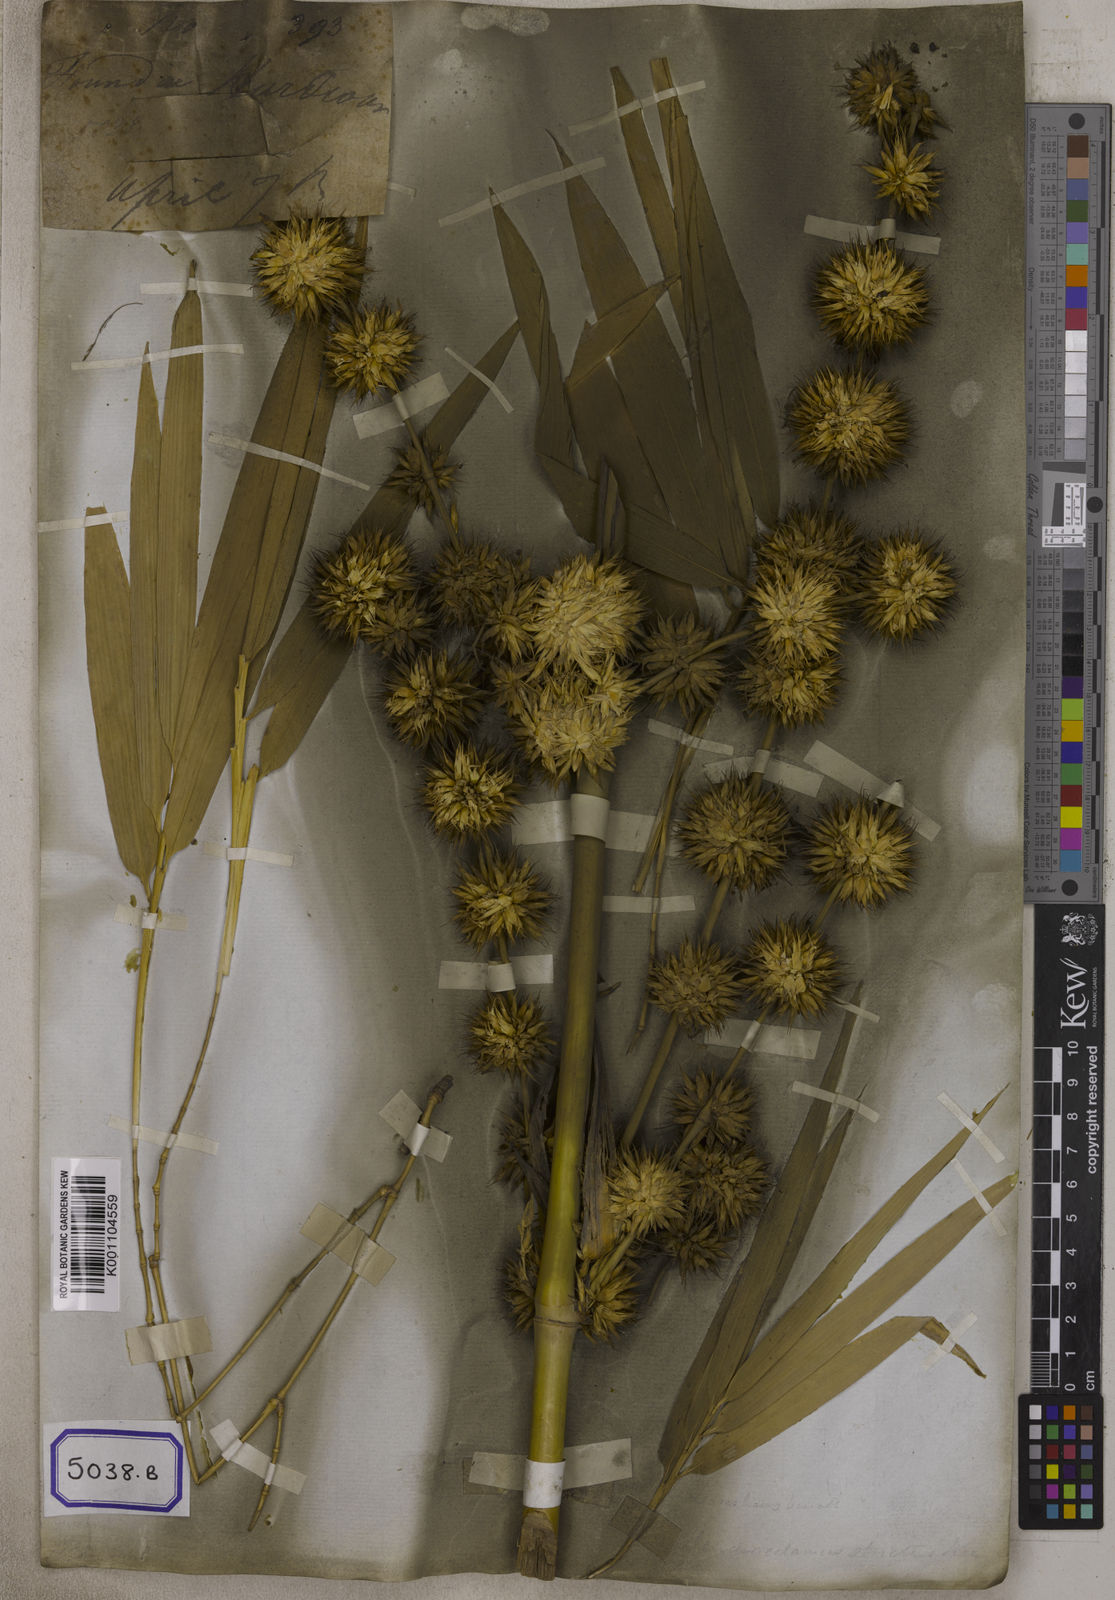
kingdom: Plantae
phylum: Tracheophyta
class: Liliopsida
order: Poales
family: Poaceae
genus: Bambusa
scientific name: Bambusa
